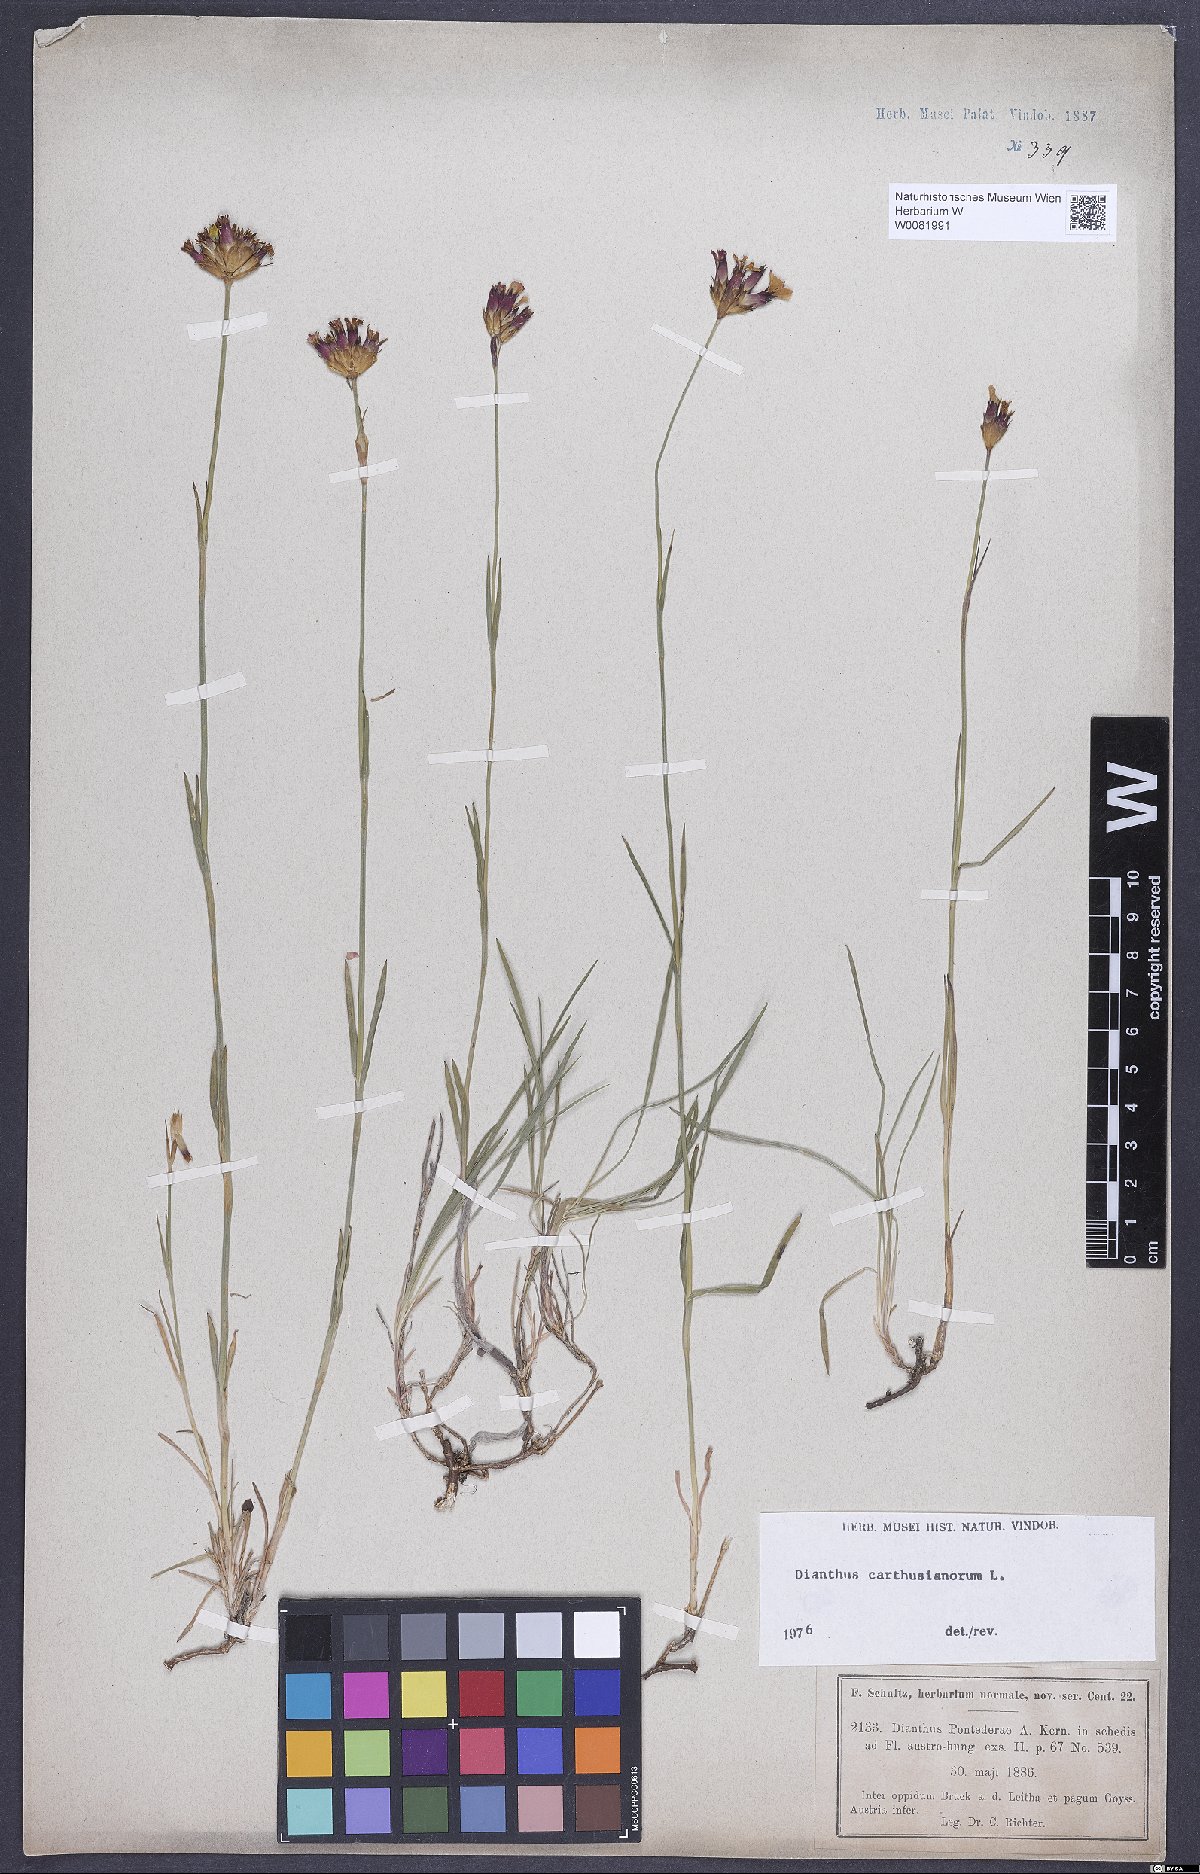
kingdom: Plantae
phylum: Tracheophyta
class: Magnoliopsida
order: Caryophyllales
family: Caryophyllaceae
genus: Dianthus
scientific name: Dianthus carthusianorum
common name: Carthusian pink
